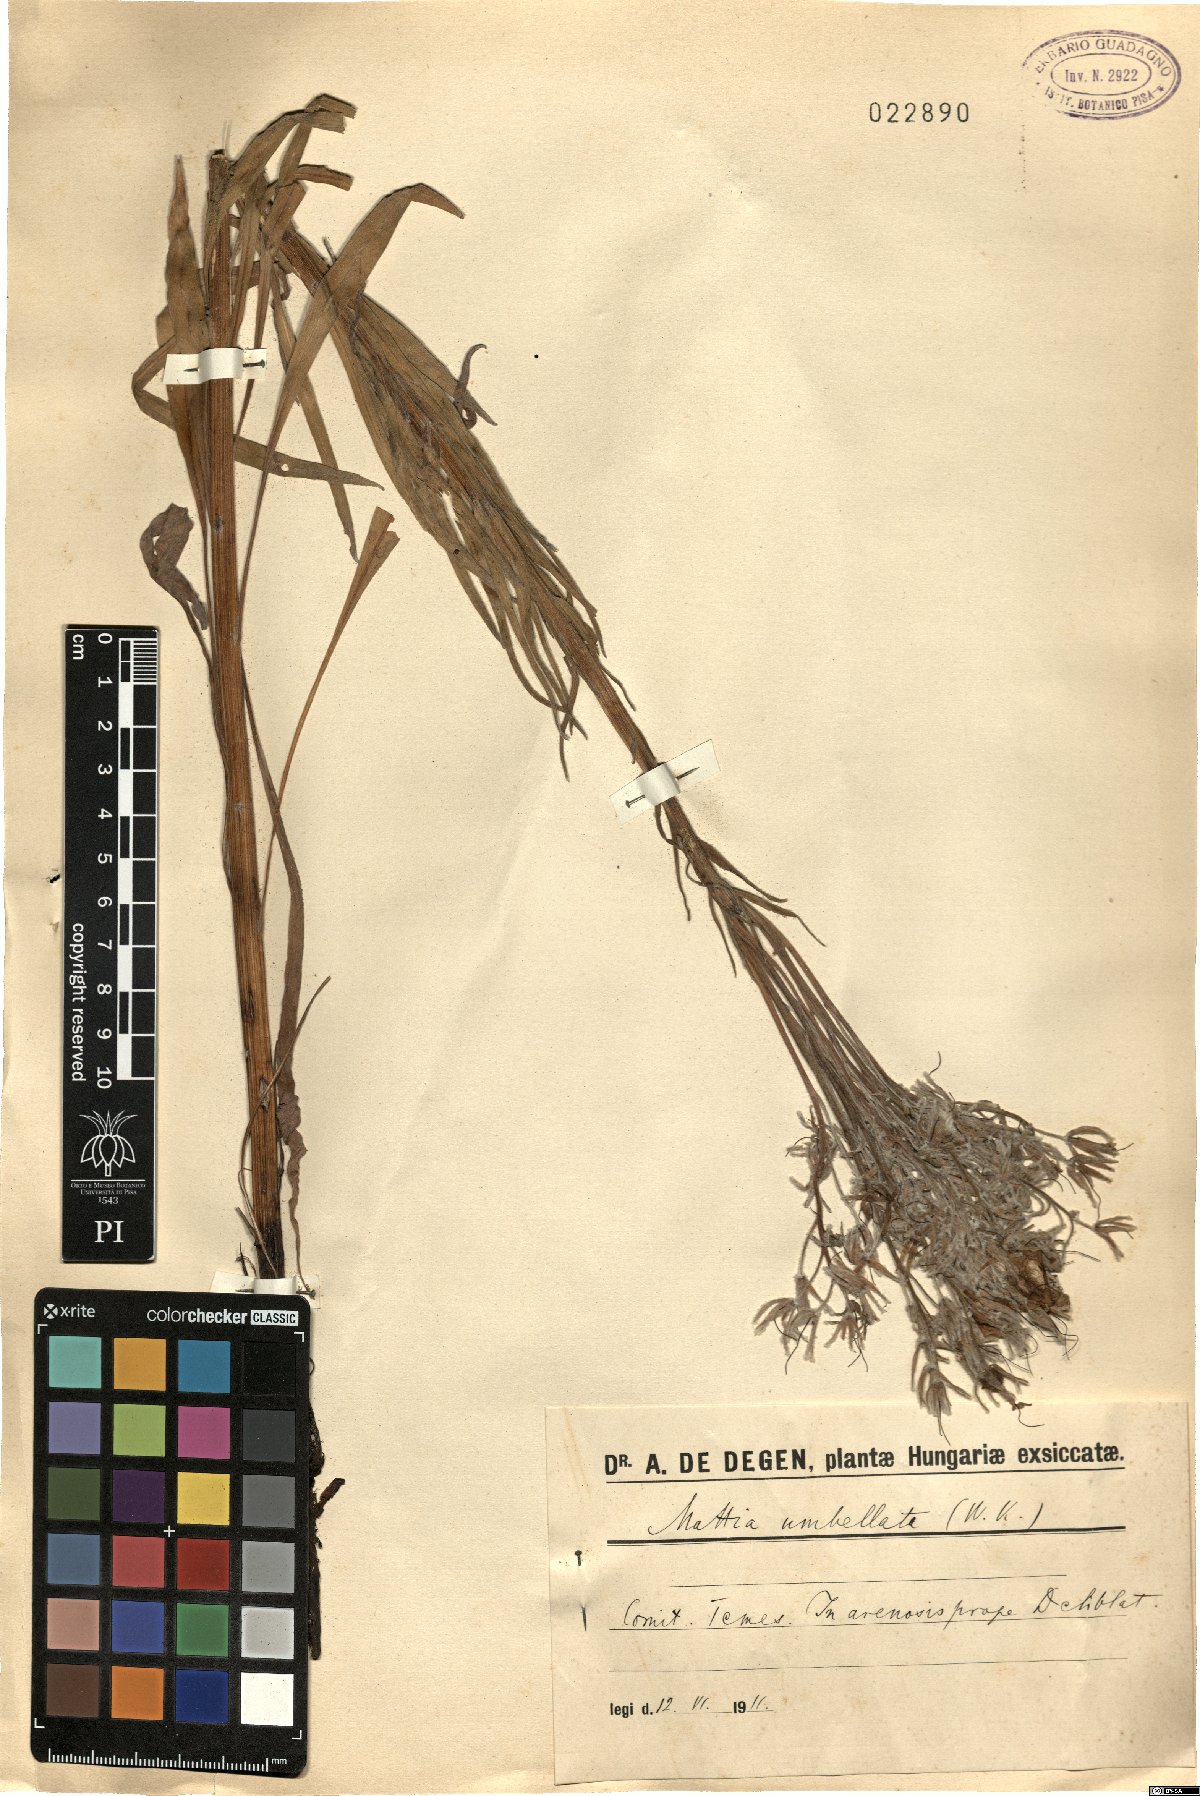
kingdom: Plantae
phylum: Tracheophyta
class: Magnoliopsida
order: Boraginales
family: Boraginaceae
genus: Rindera
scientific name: Rindera umbellata
